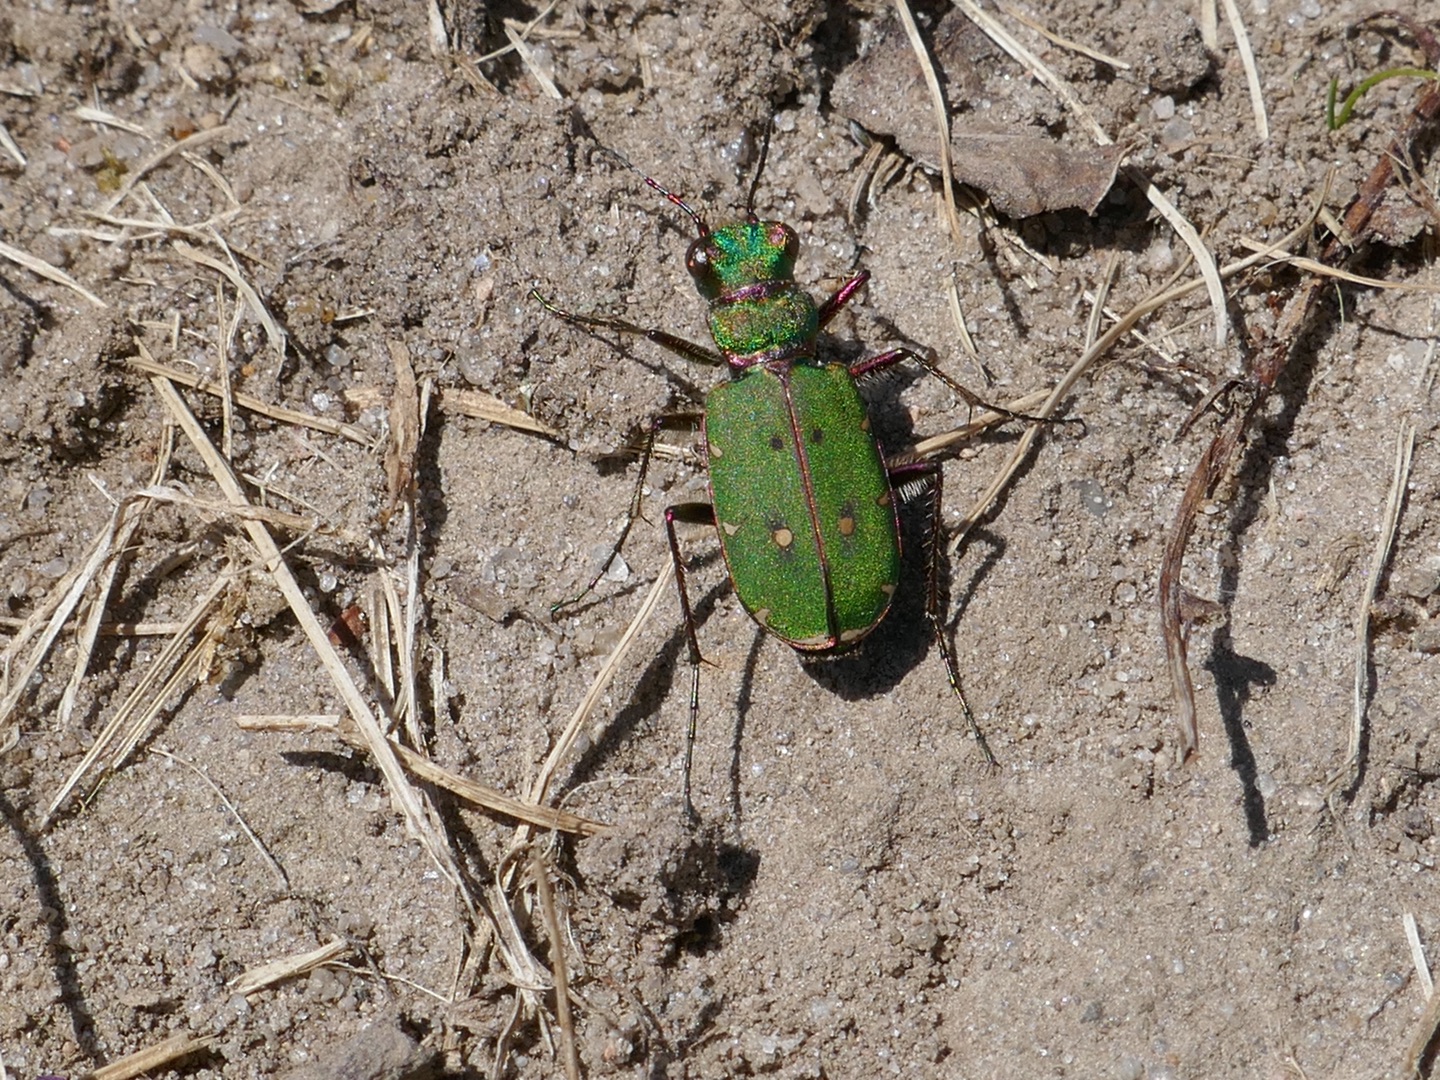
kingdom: Animalia
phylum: Arthropoda
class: Insecta
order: Coleoptera
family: Carabidae
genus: Cicindela
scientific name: Cicindela campestris
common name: Grøn sandspringer
